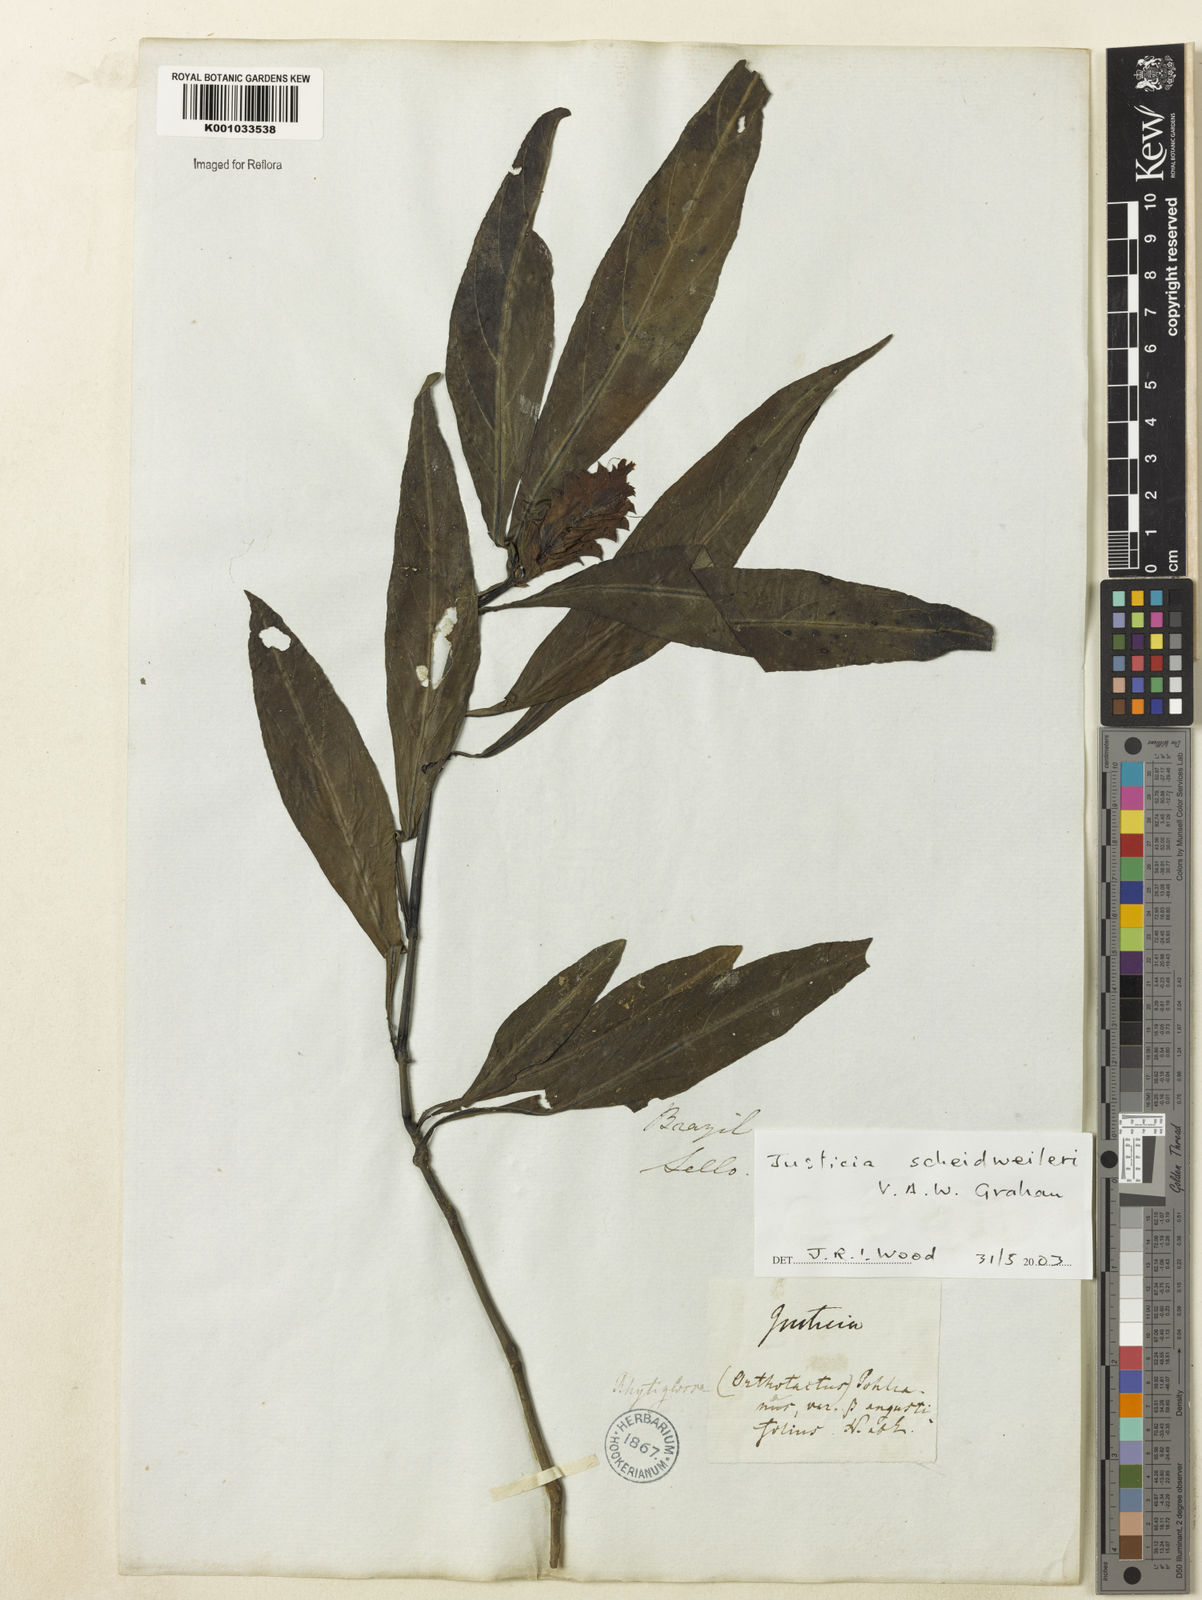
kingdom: Plantae
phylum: Tracheophyta
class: Magnoliopsida
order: Lamiales
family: Acanthaceae
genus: Justicia
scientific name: Justicia scheidweileri
